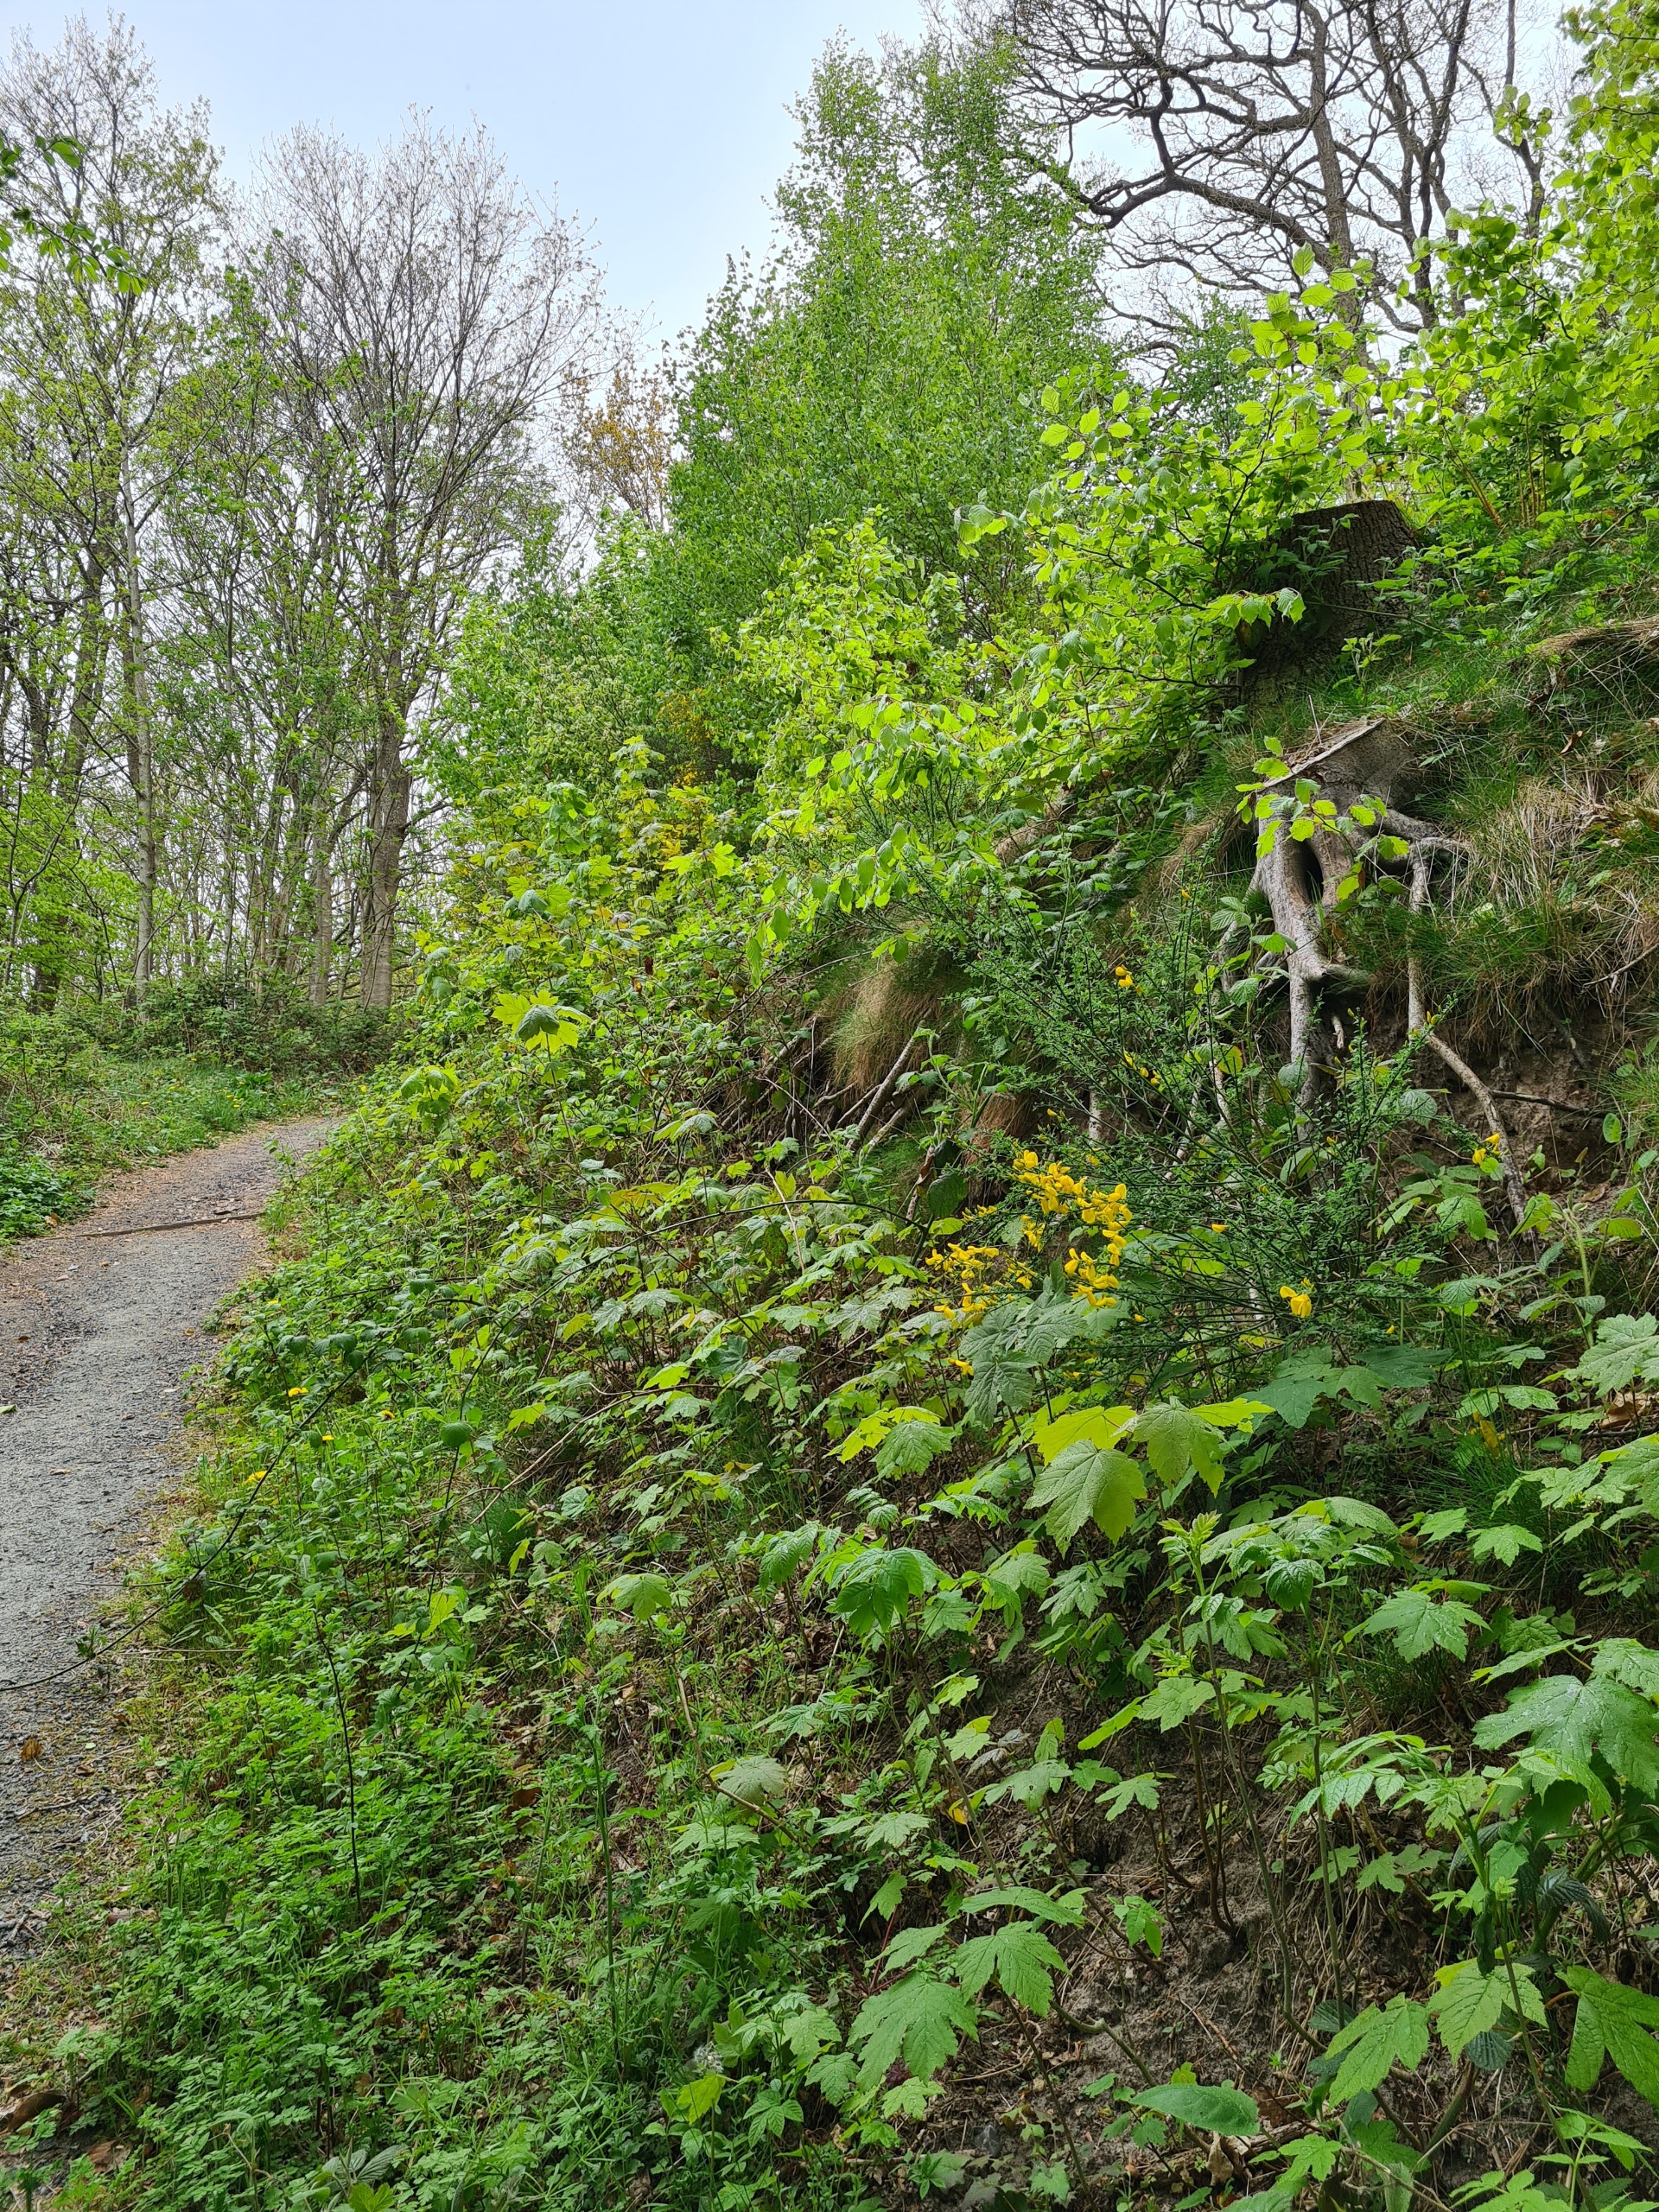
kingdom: Plantae
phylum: Tracheophyta
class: Magnoliopsida
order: Fabales
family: Fabaceae
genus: Cytisus
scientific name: Cytisus scoparius
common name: Almindelig gyvel
